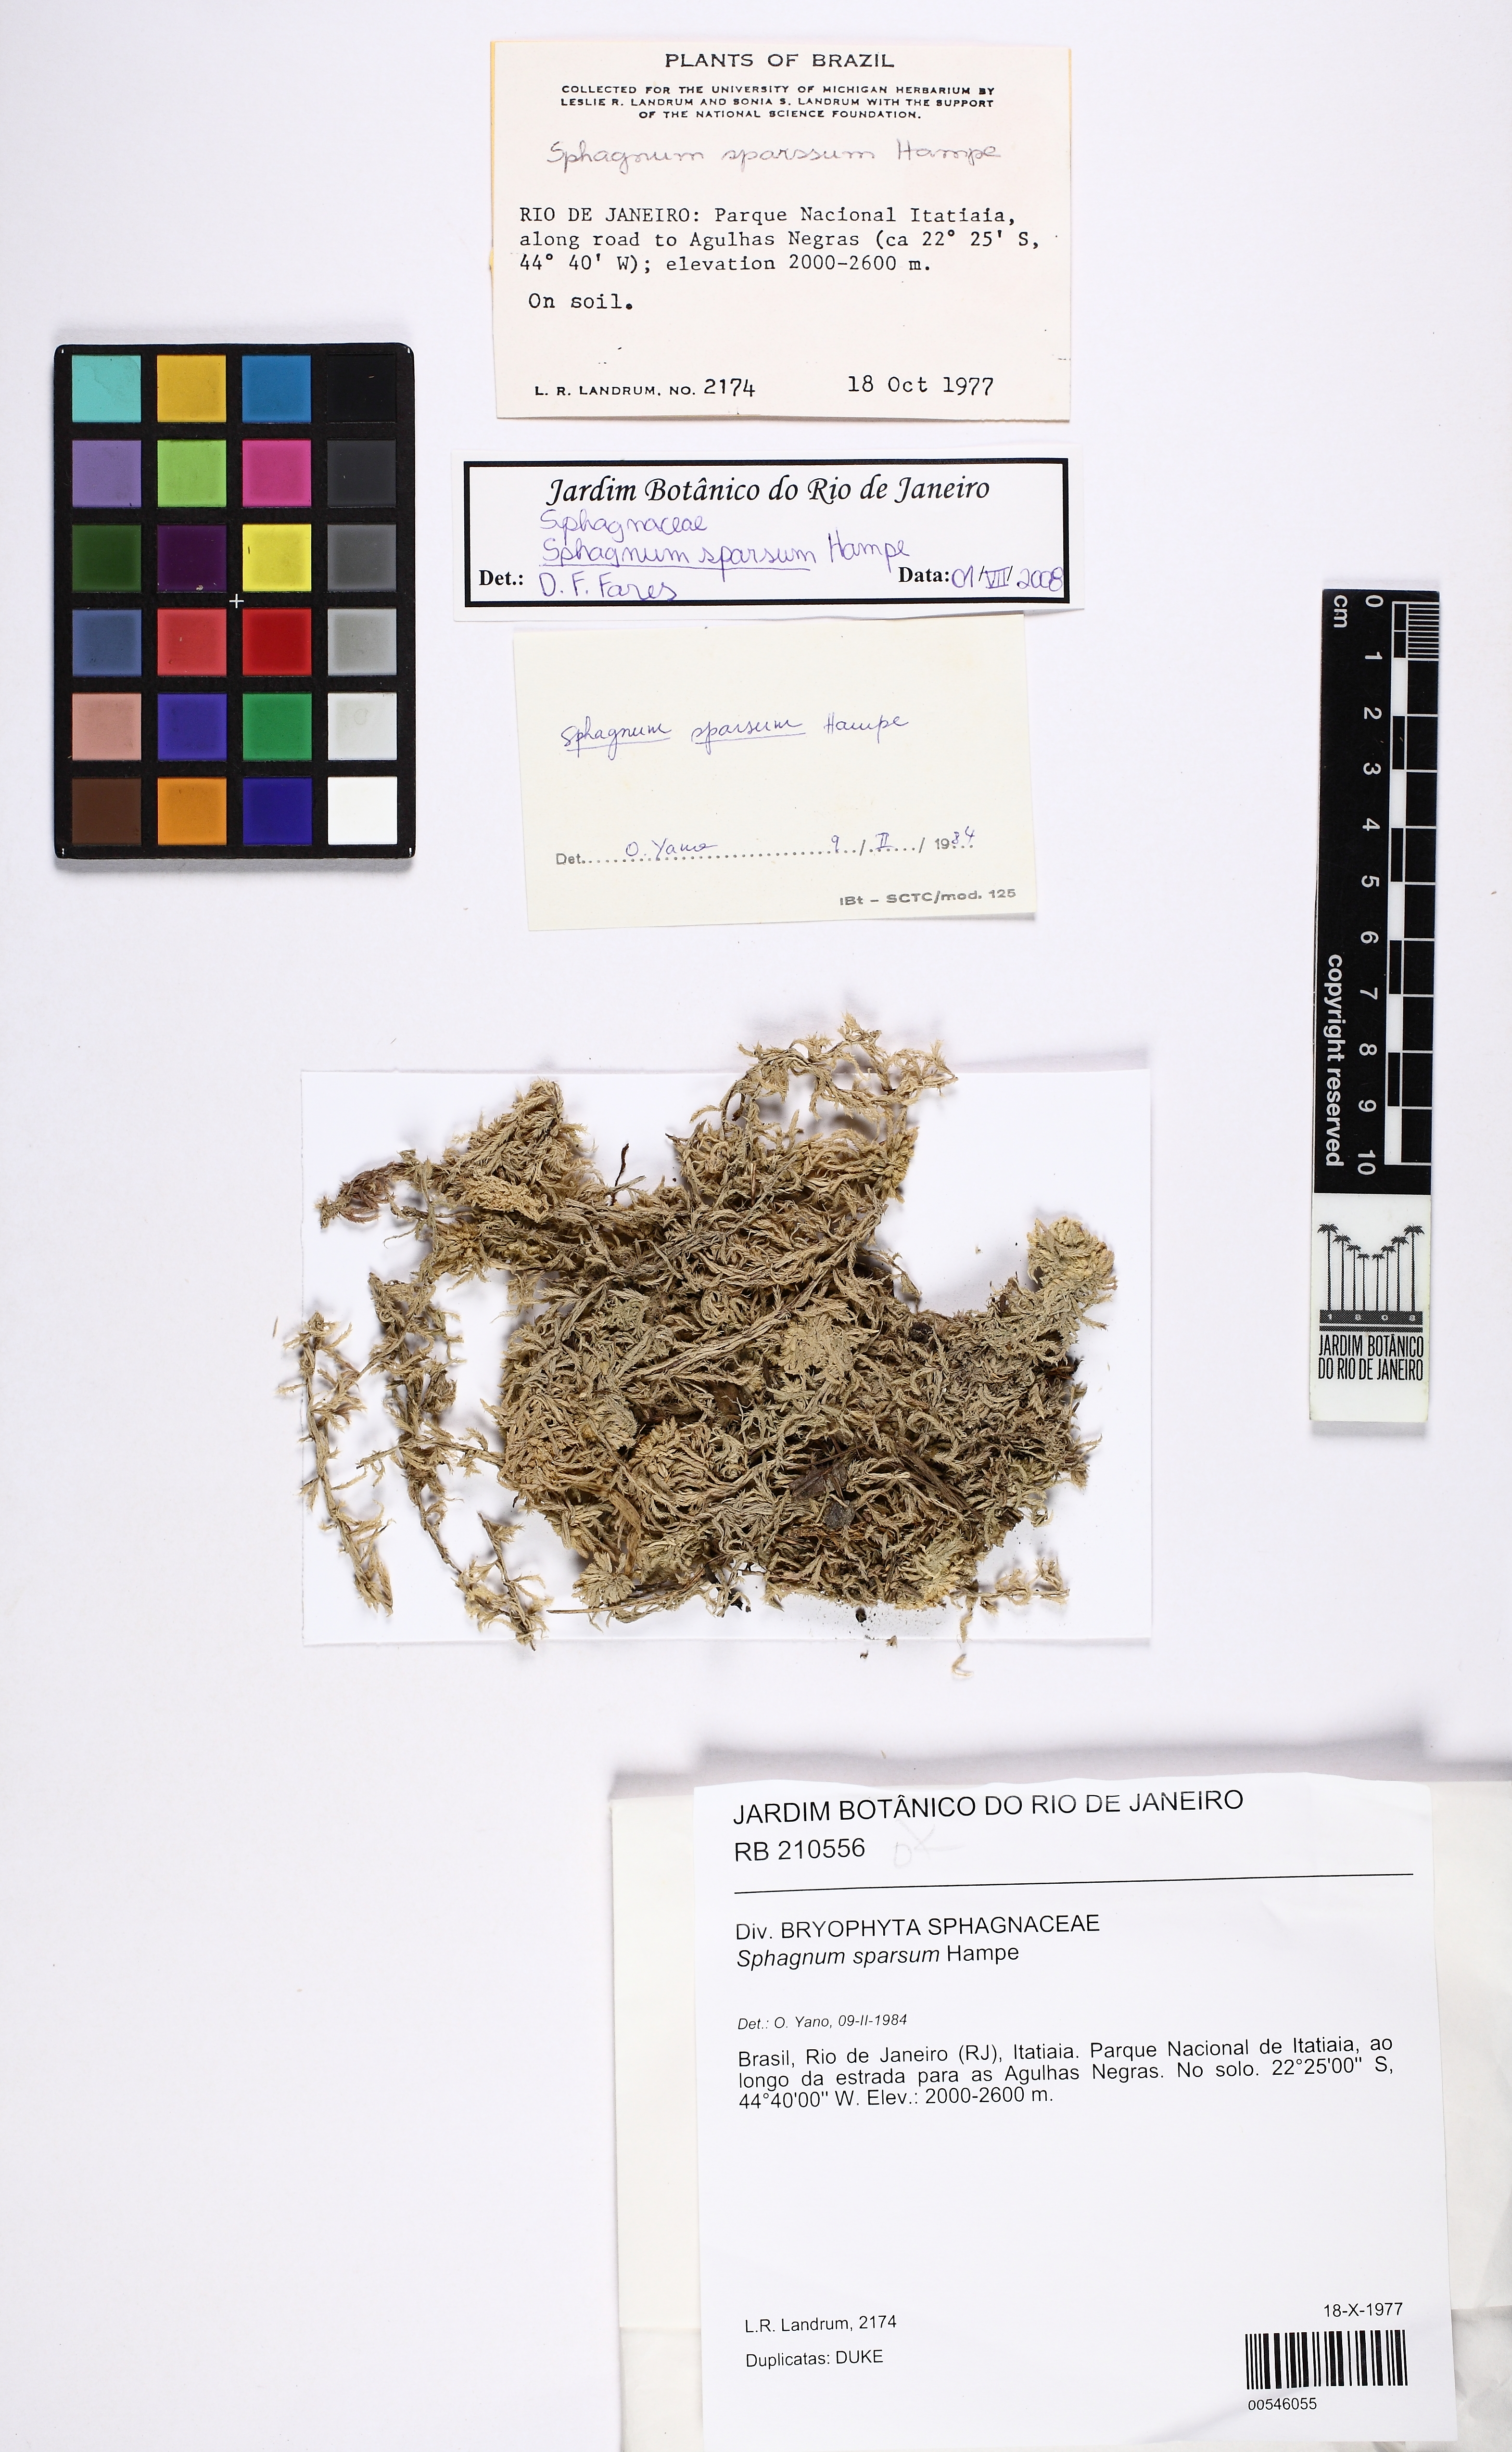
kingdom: Plantae
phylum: Bryophyta
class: Sphagnopsida
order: Sphagnales
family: Sphagnaceae
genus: Sphagnum
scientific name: Sphagnum sparsum
